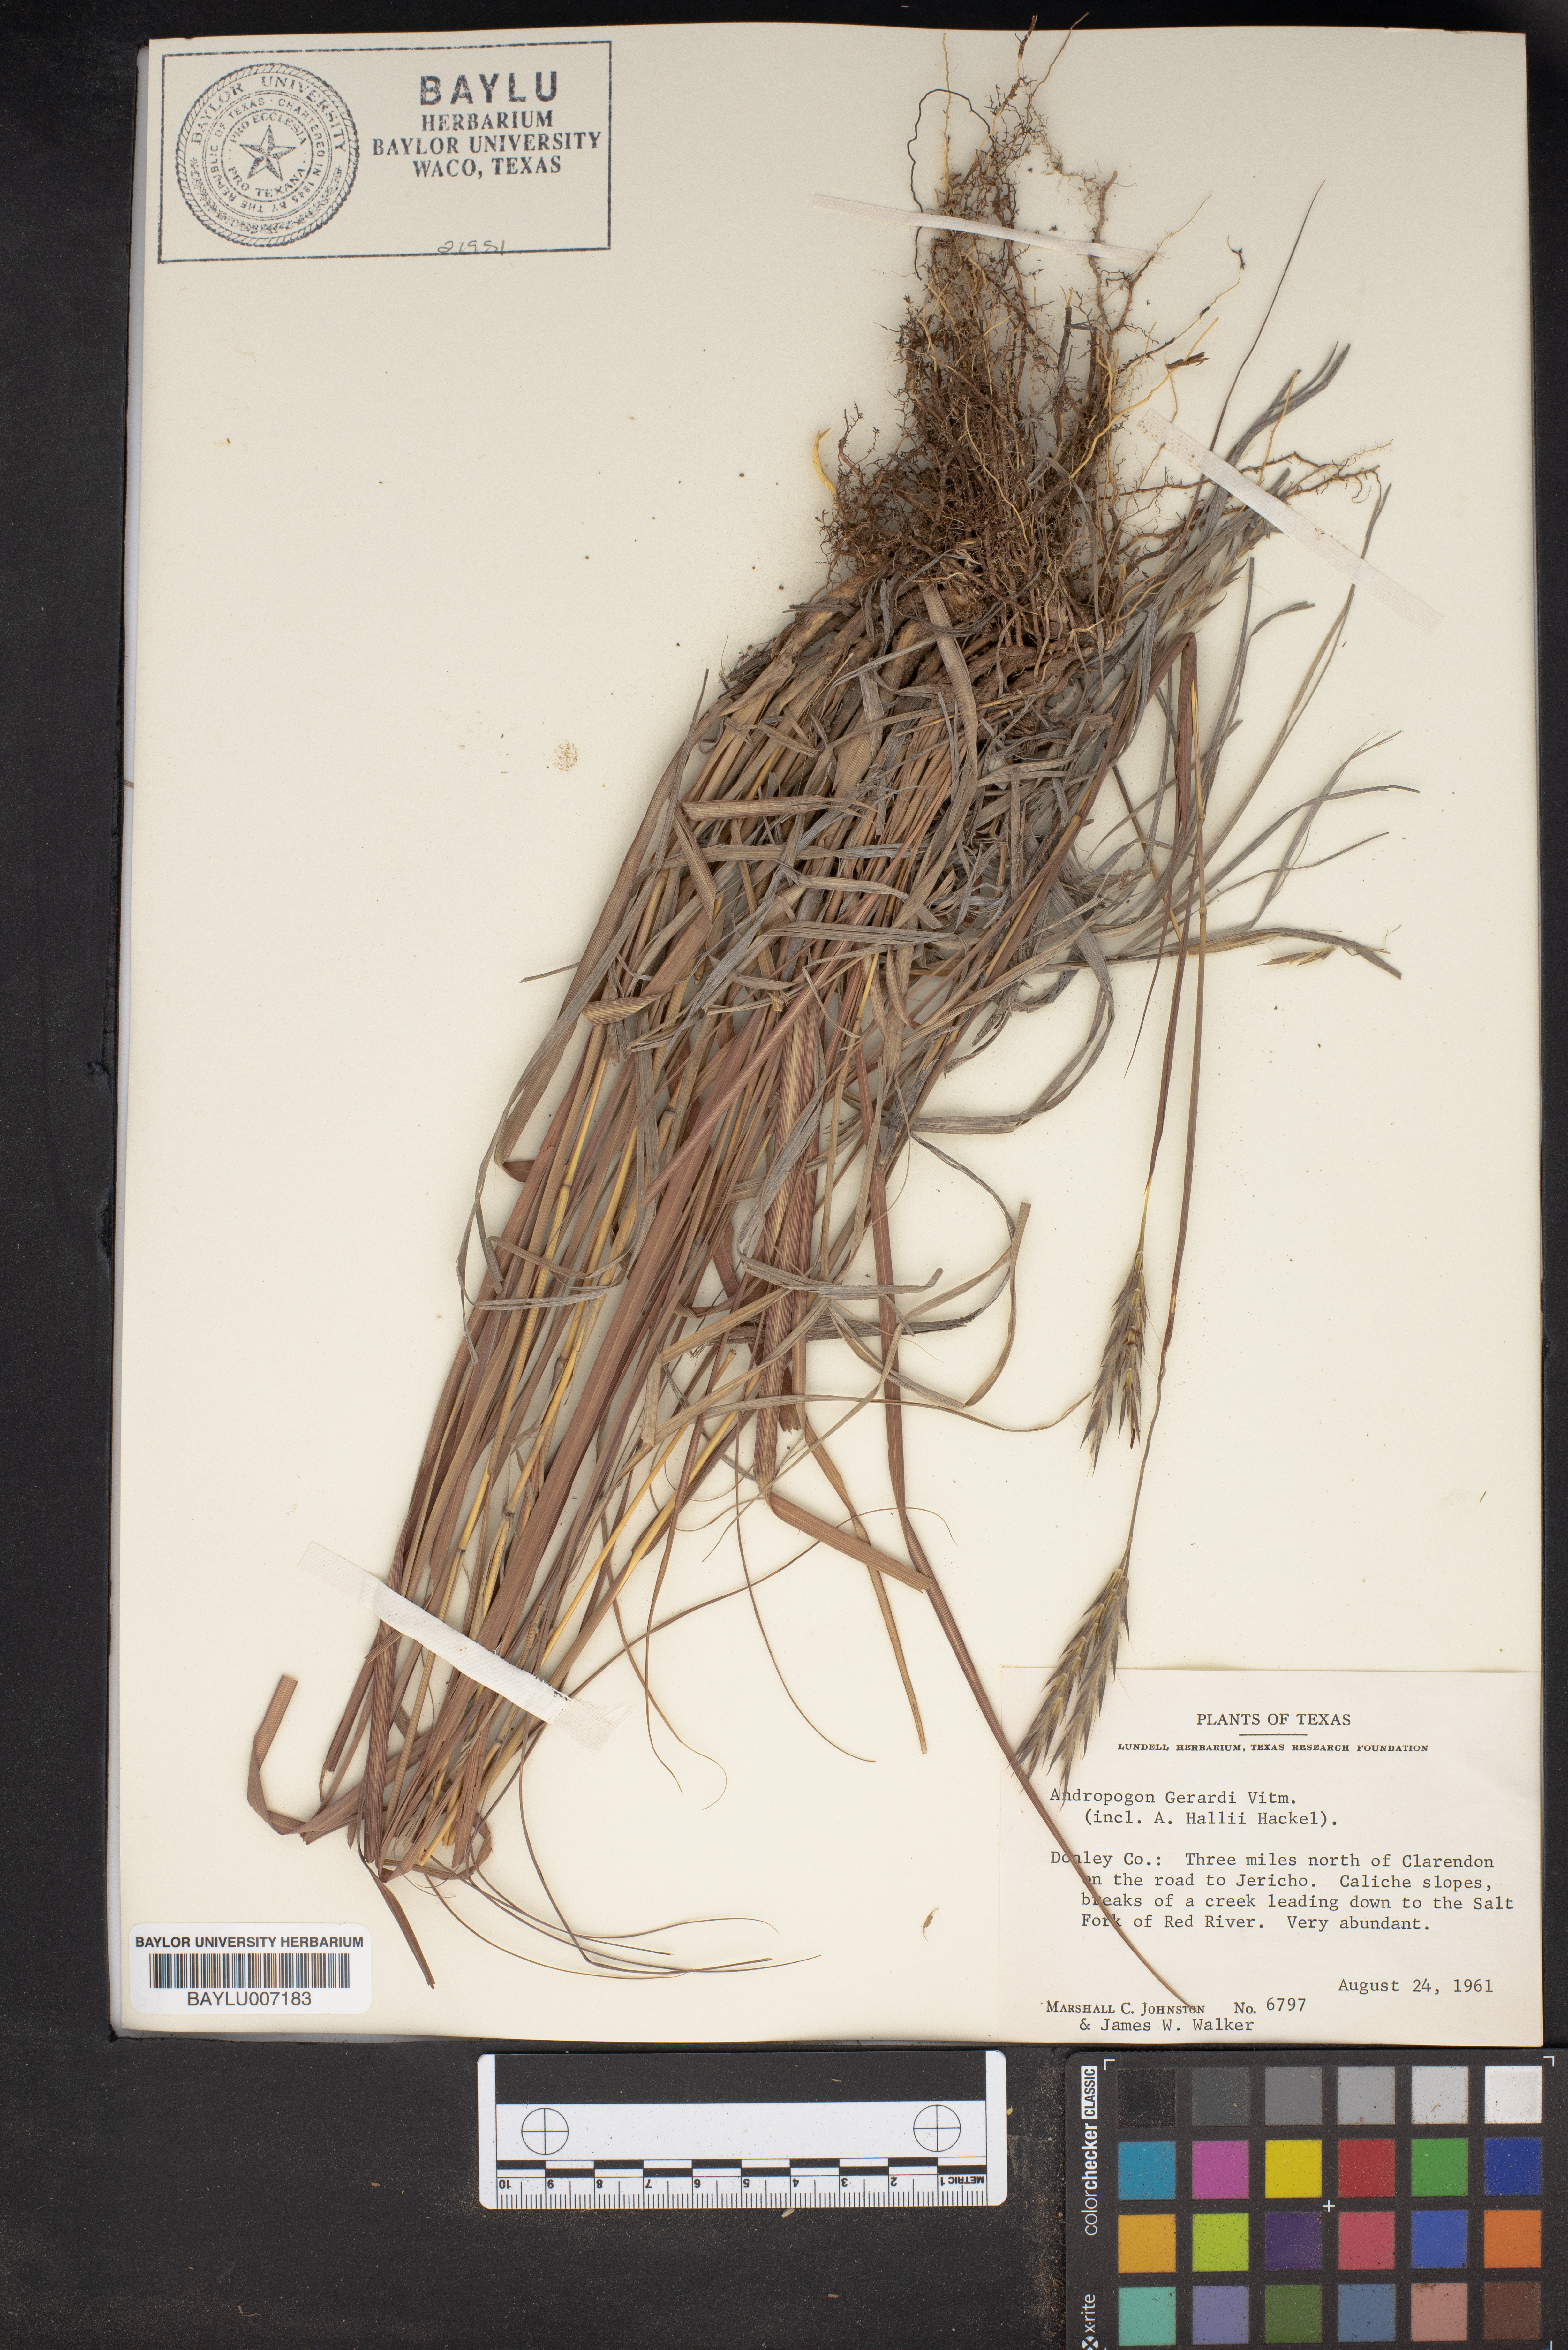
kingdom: Plantae
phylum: Tracheophyta
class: Liliopsida
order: Poales
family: Poaceae
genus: Andropogon
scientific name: Andropogon gerardi
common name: Big bluestem
